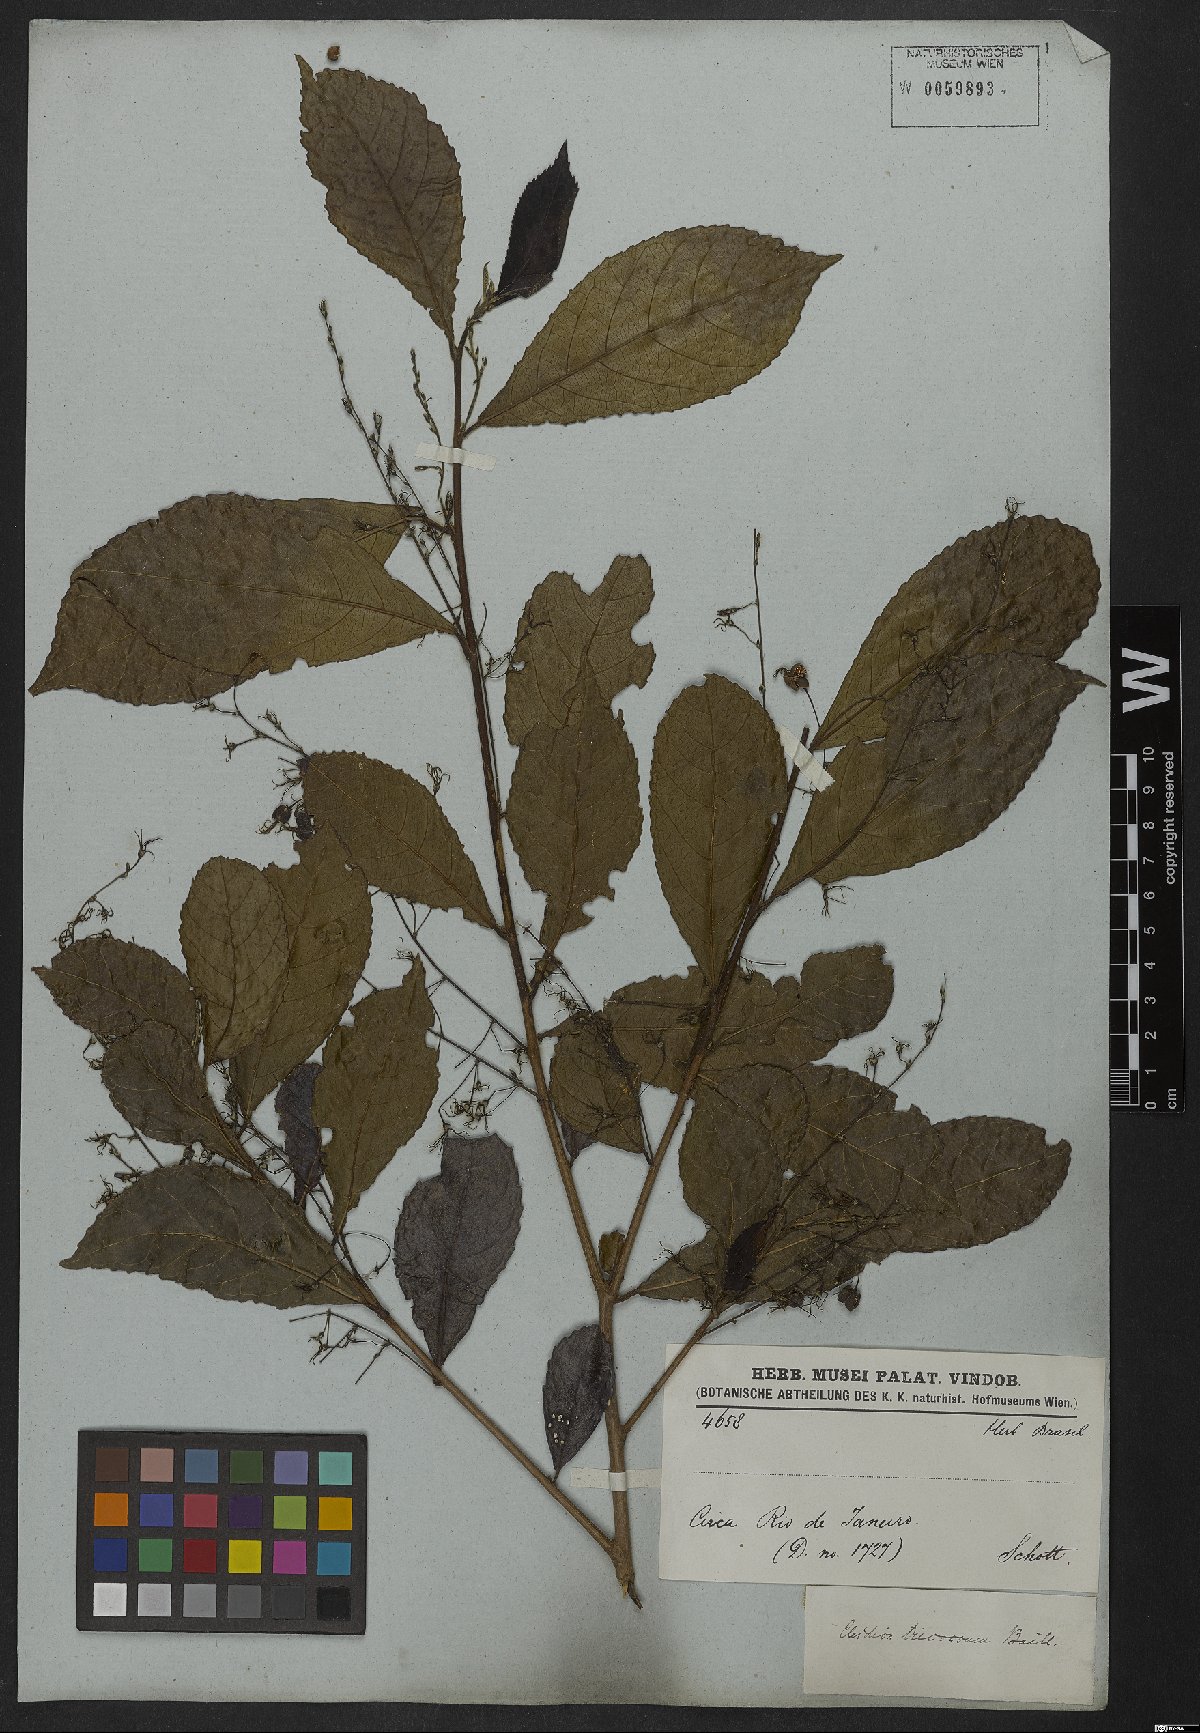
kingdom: Plantae
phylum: Tracheophyta
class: Magnoliopsida
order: Malpighiales
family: Euphorbiaceae
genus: Cleidion
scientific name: Cleidion tricoccum
